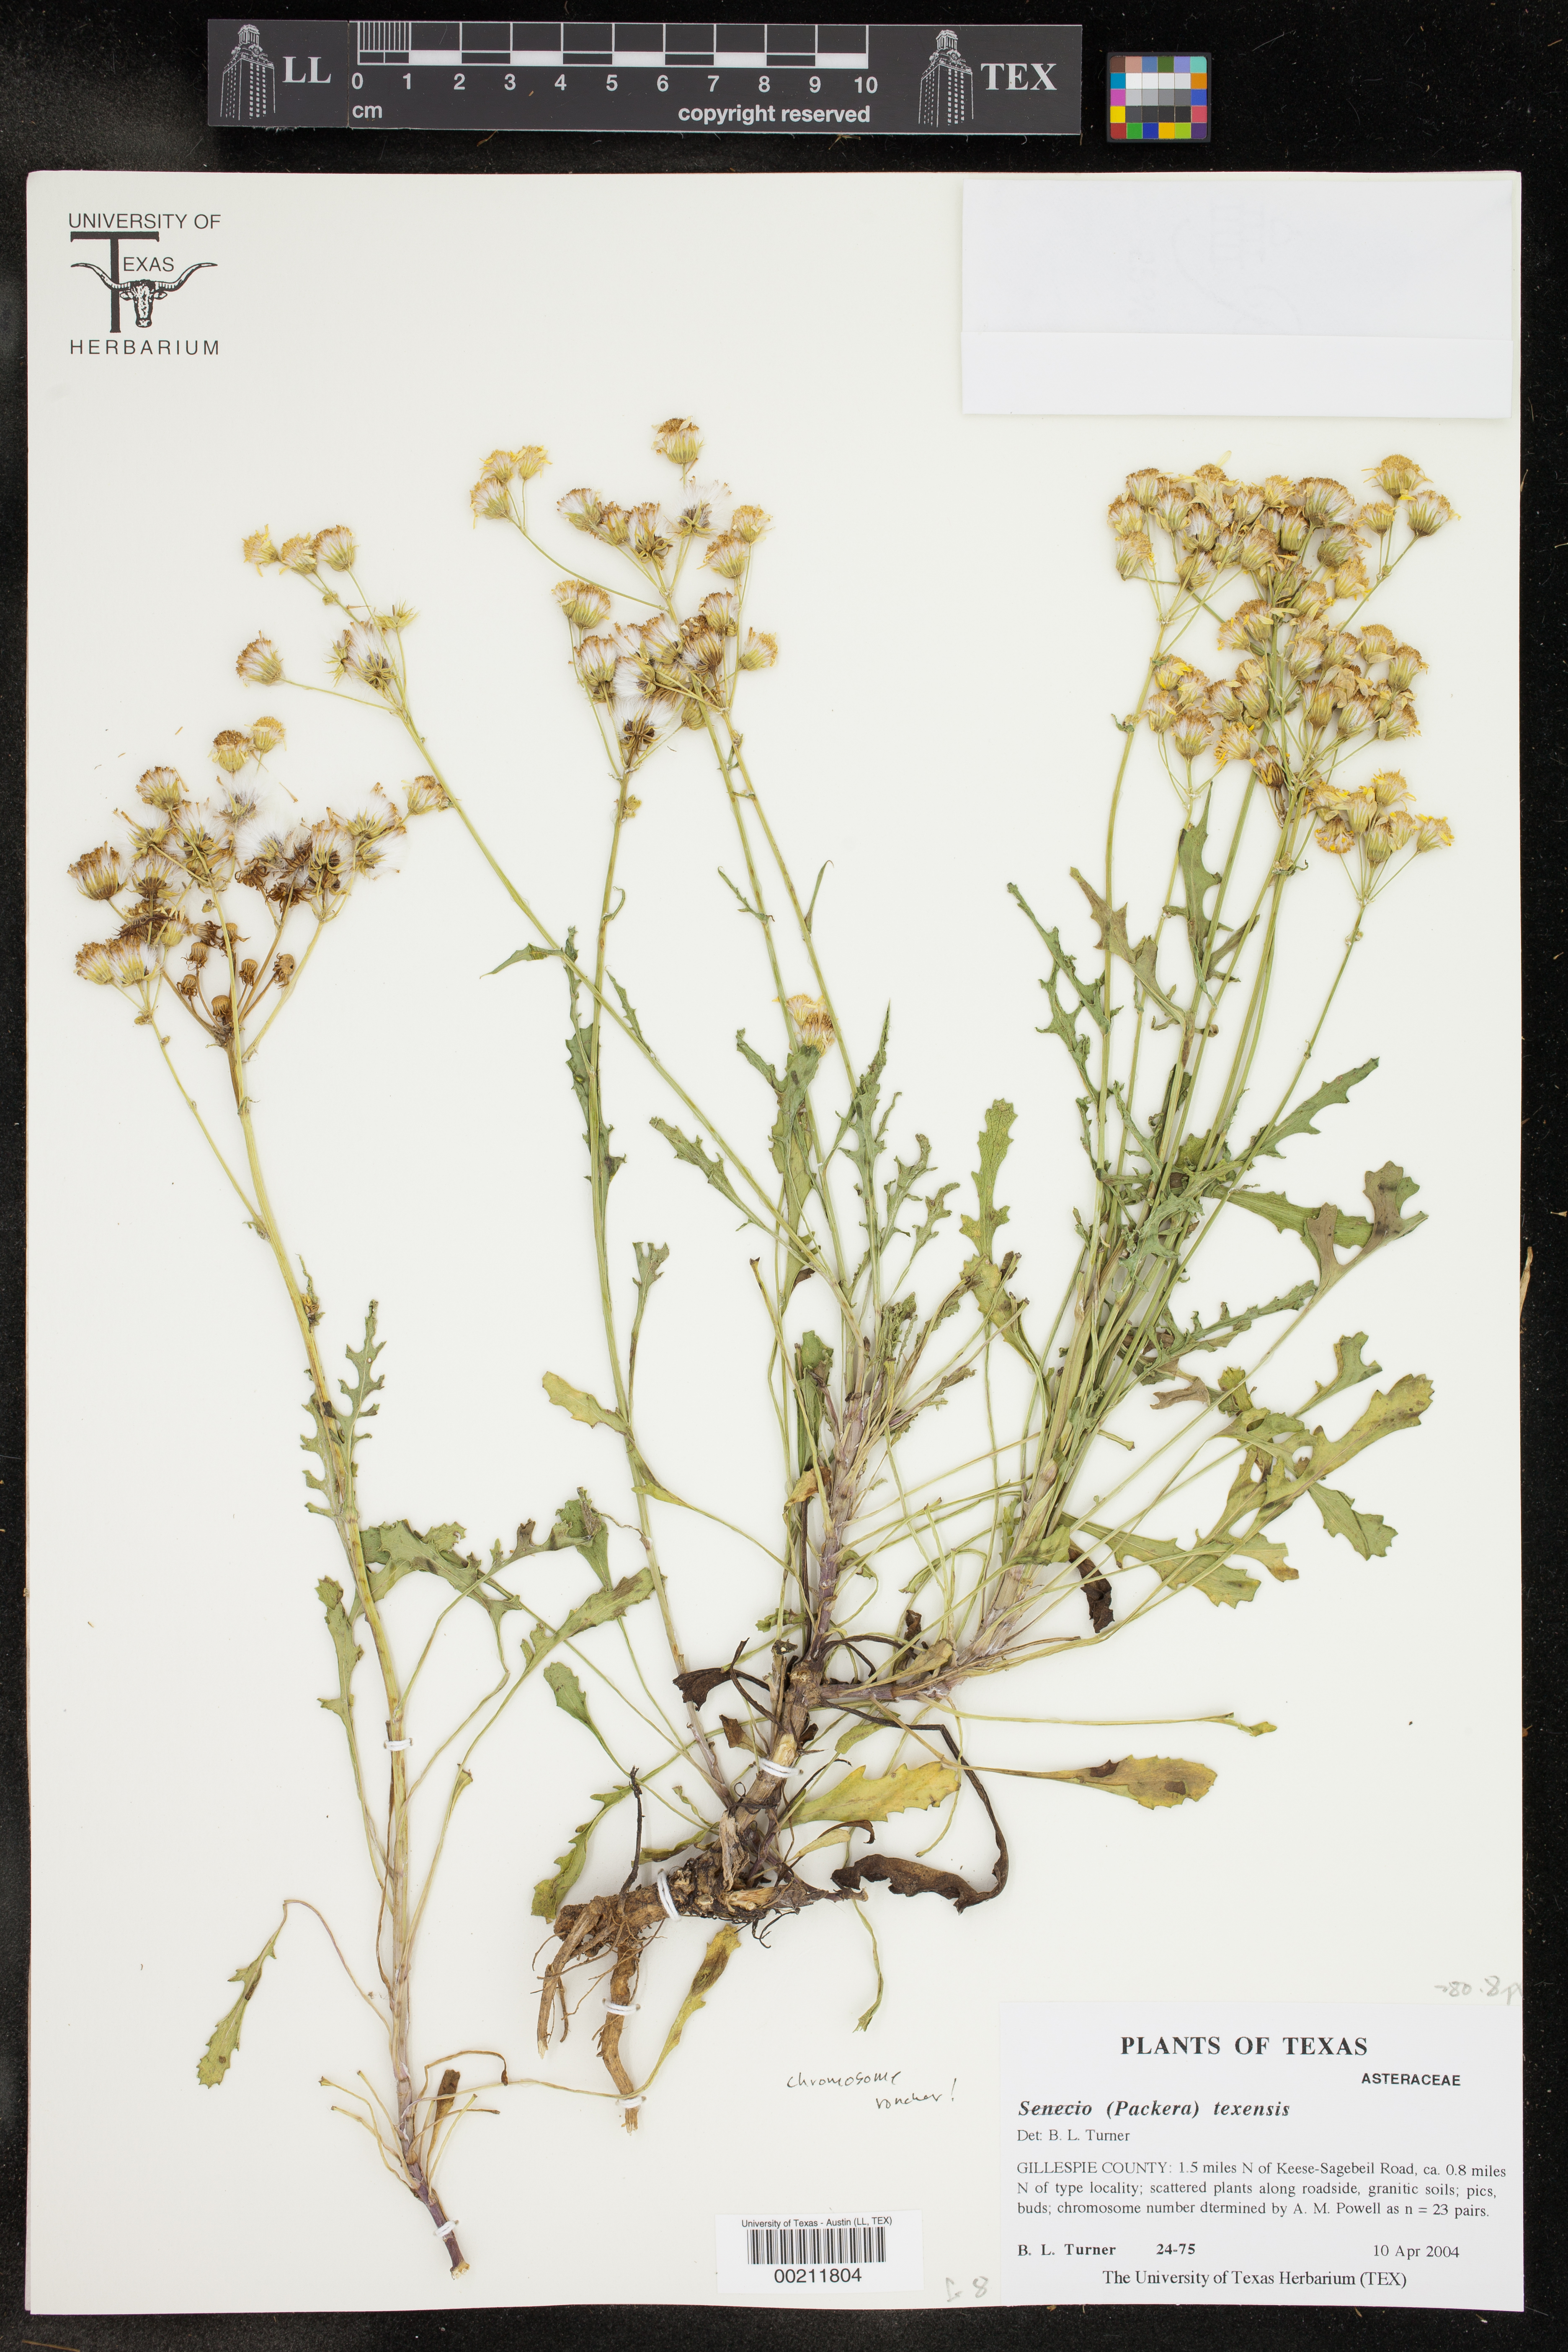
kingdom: Plantae
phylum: Tracheophyta
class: Magnoliopsida
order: Asterales
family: Asteraceae
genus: Packera
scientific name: Packera texensis
